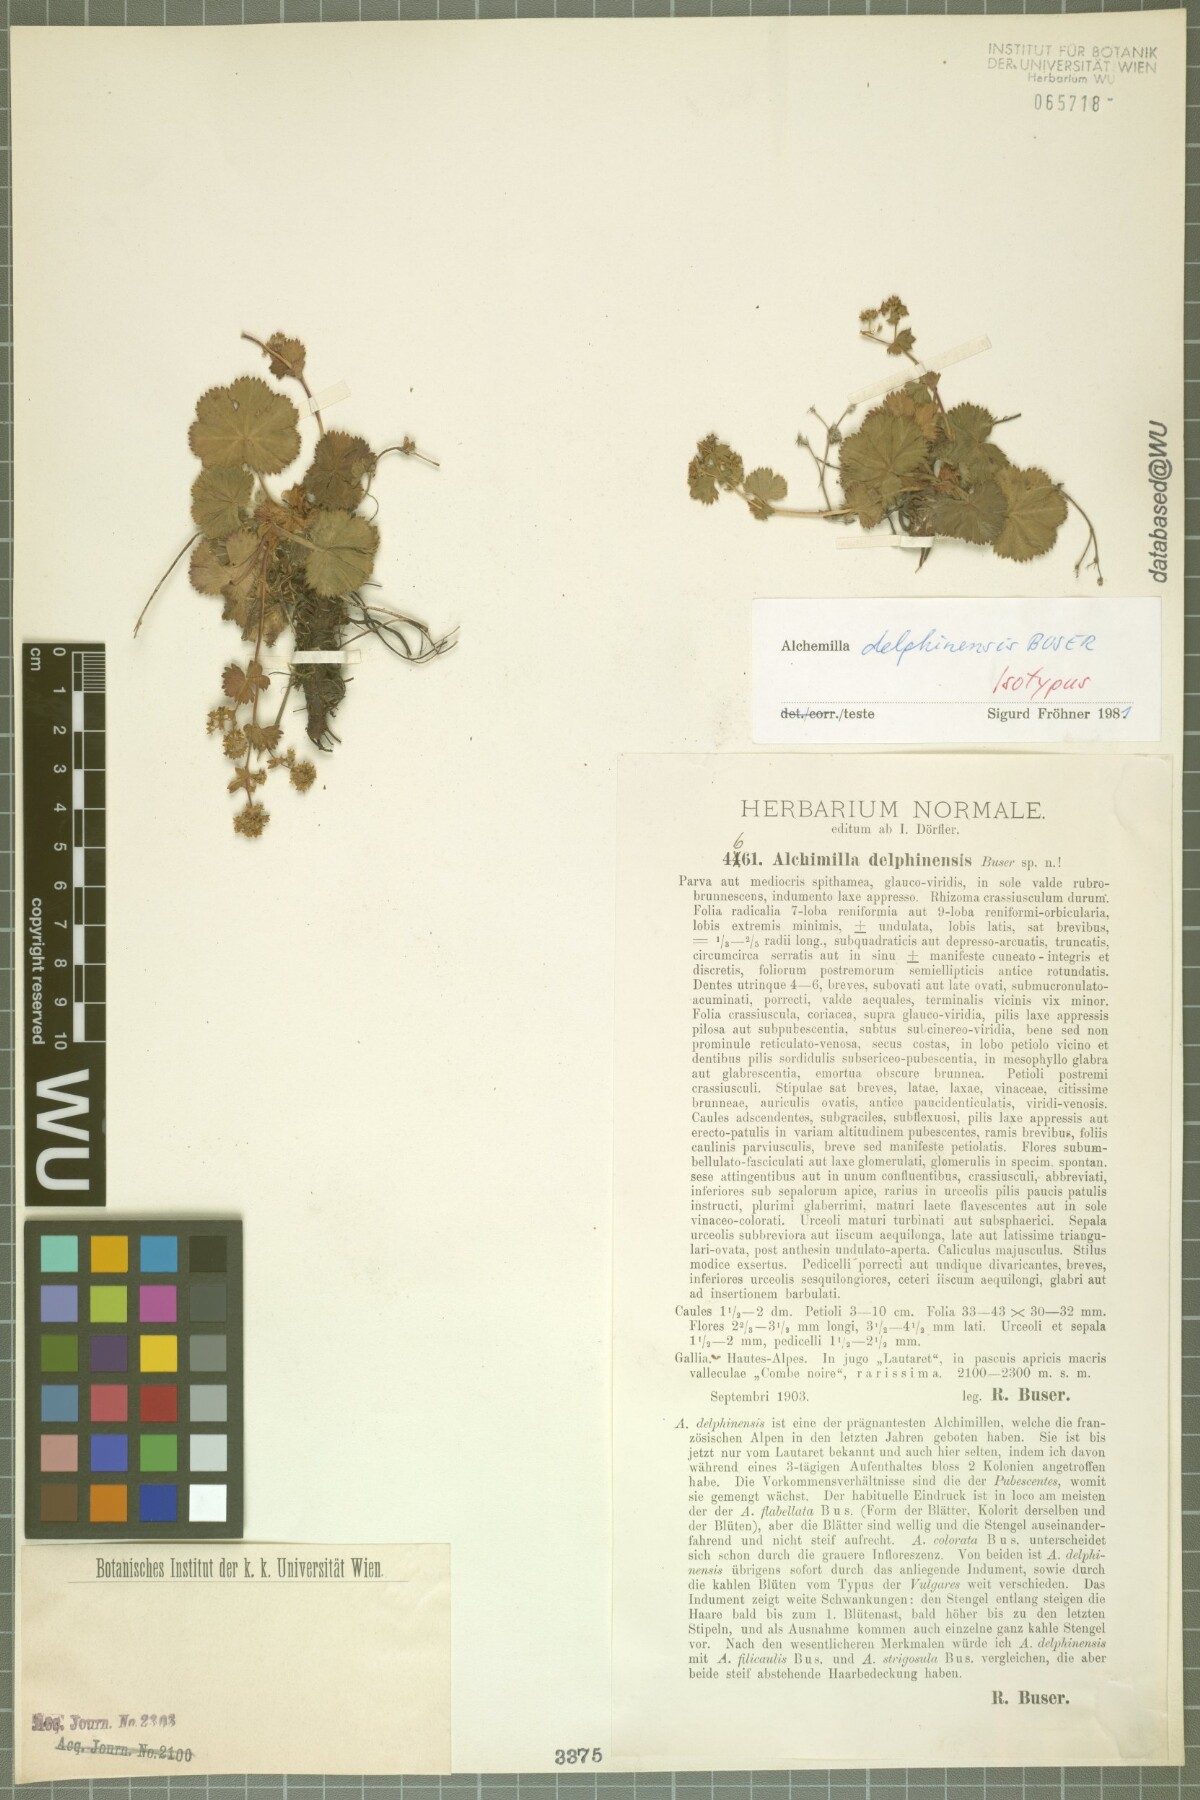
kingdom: Plantae
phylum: Tracheophyta
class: Magnoliopsida
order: Rosales
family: Rosaceae
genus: Alchemilla
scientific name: Alchemilla delphinensis
